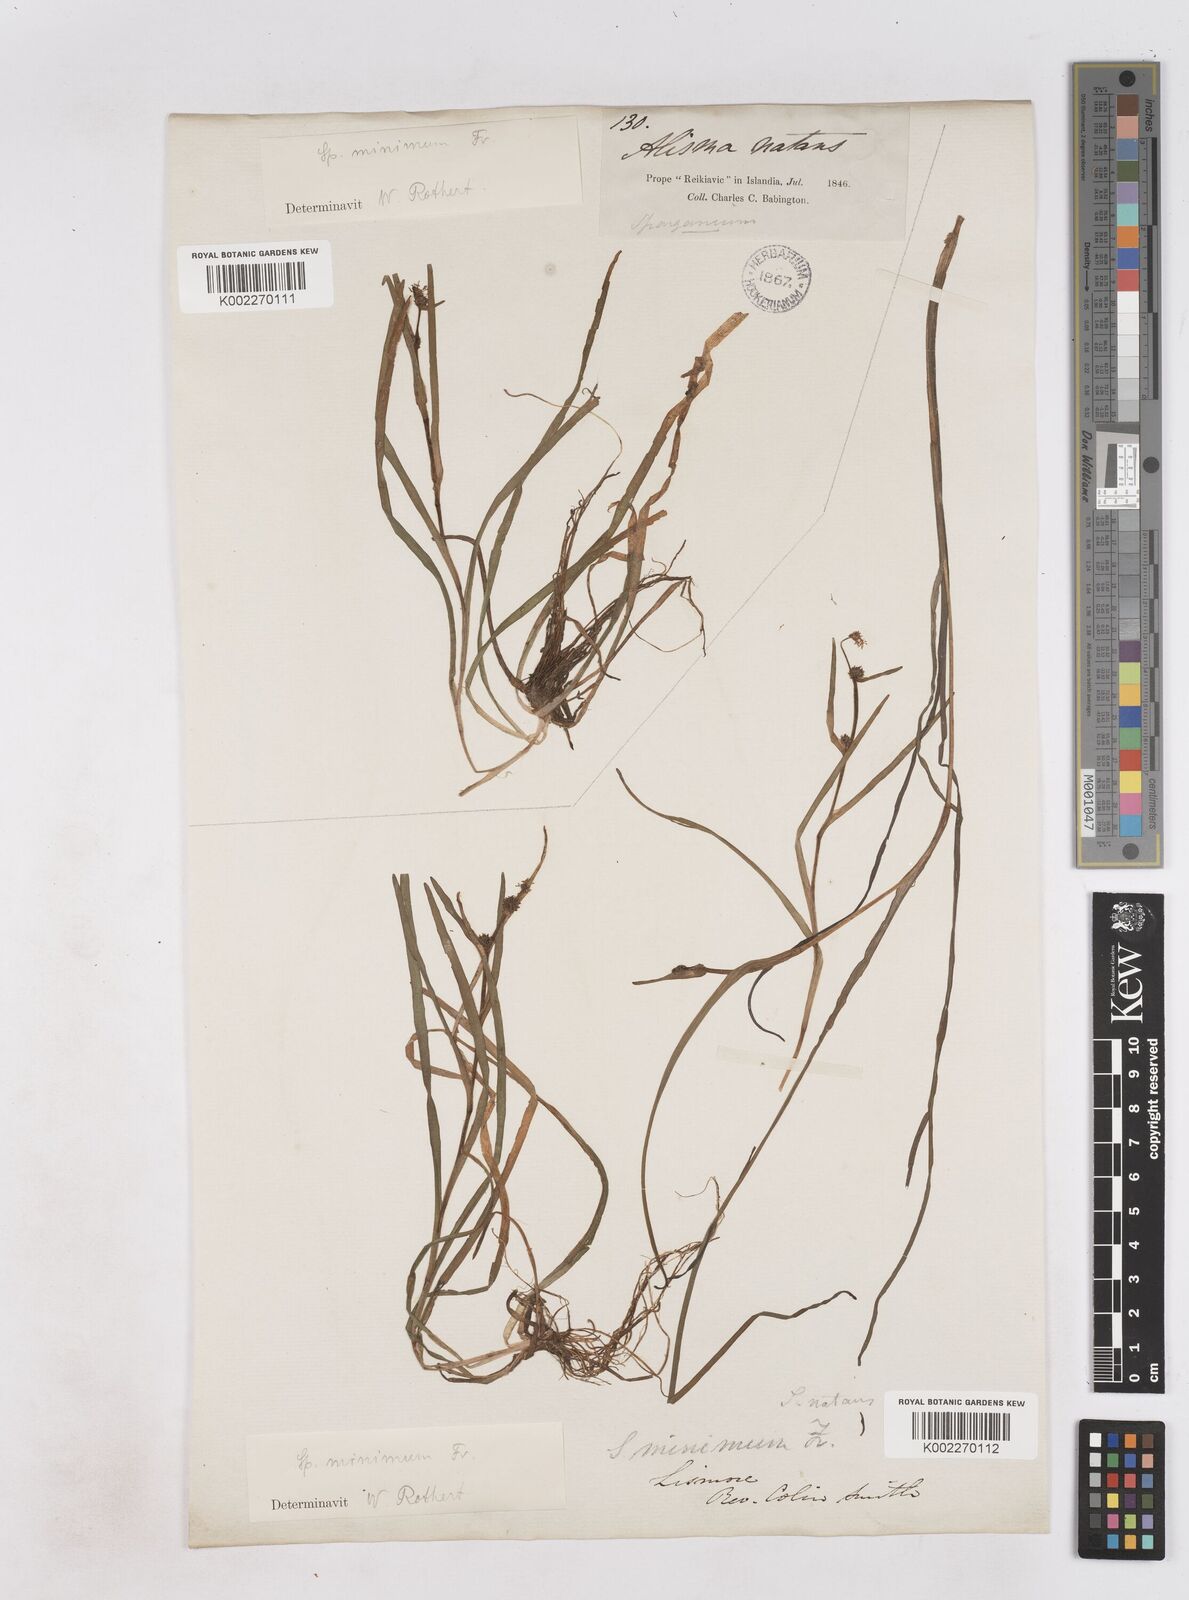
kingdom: Plantae
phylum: Tracheophyta
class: Liliopsida
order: Poales
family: Typhaceae
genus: Sparganium
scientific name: Sparganium natans
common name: Least bur-reed
